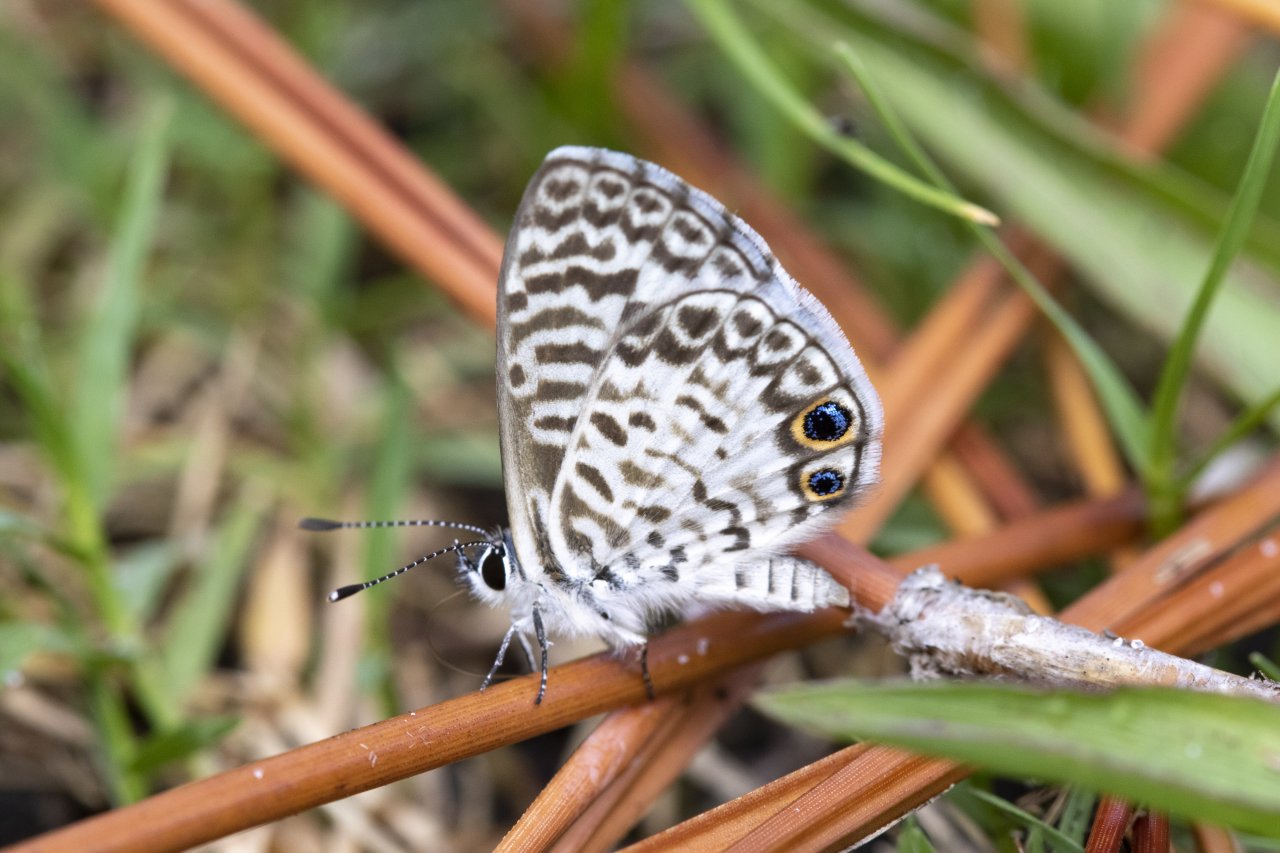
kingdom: Animalia
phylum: Arthropoda
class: Insecta
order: Lepidoptera
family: Lycaenidae
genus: Leptotes
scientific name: Leptotes cassius
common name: Cassius Blue
